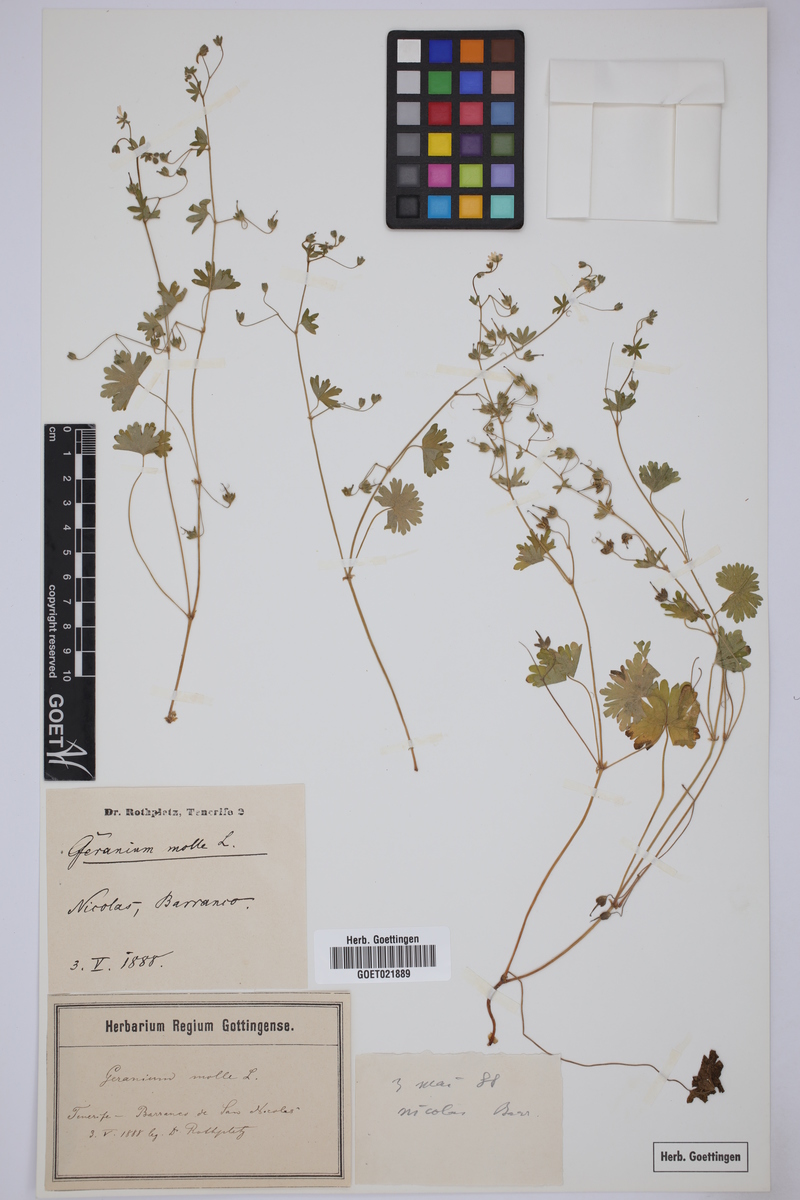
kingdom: Plantae
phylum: Tracheophyta
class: Magnoliopsida
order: Geraniales
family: Geraniaceae
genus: Geranium
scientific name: Geranium molle
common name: Dove's-foot crane's-bill
